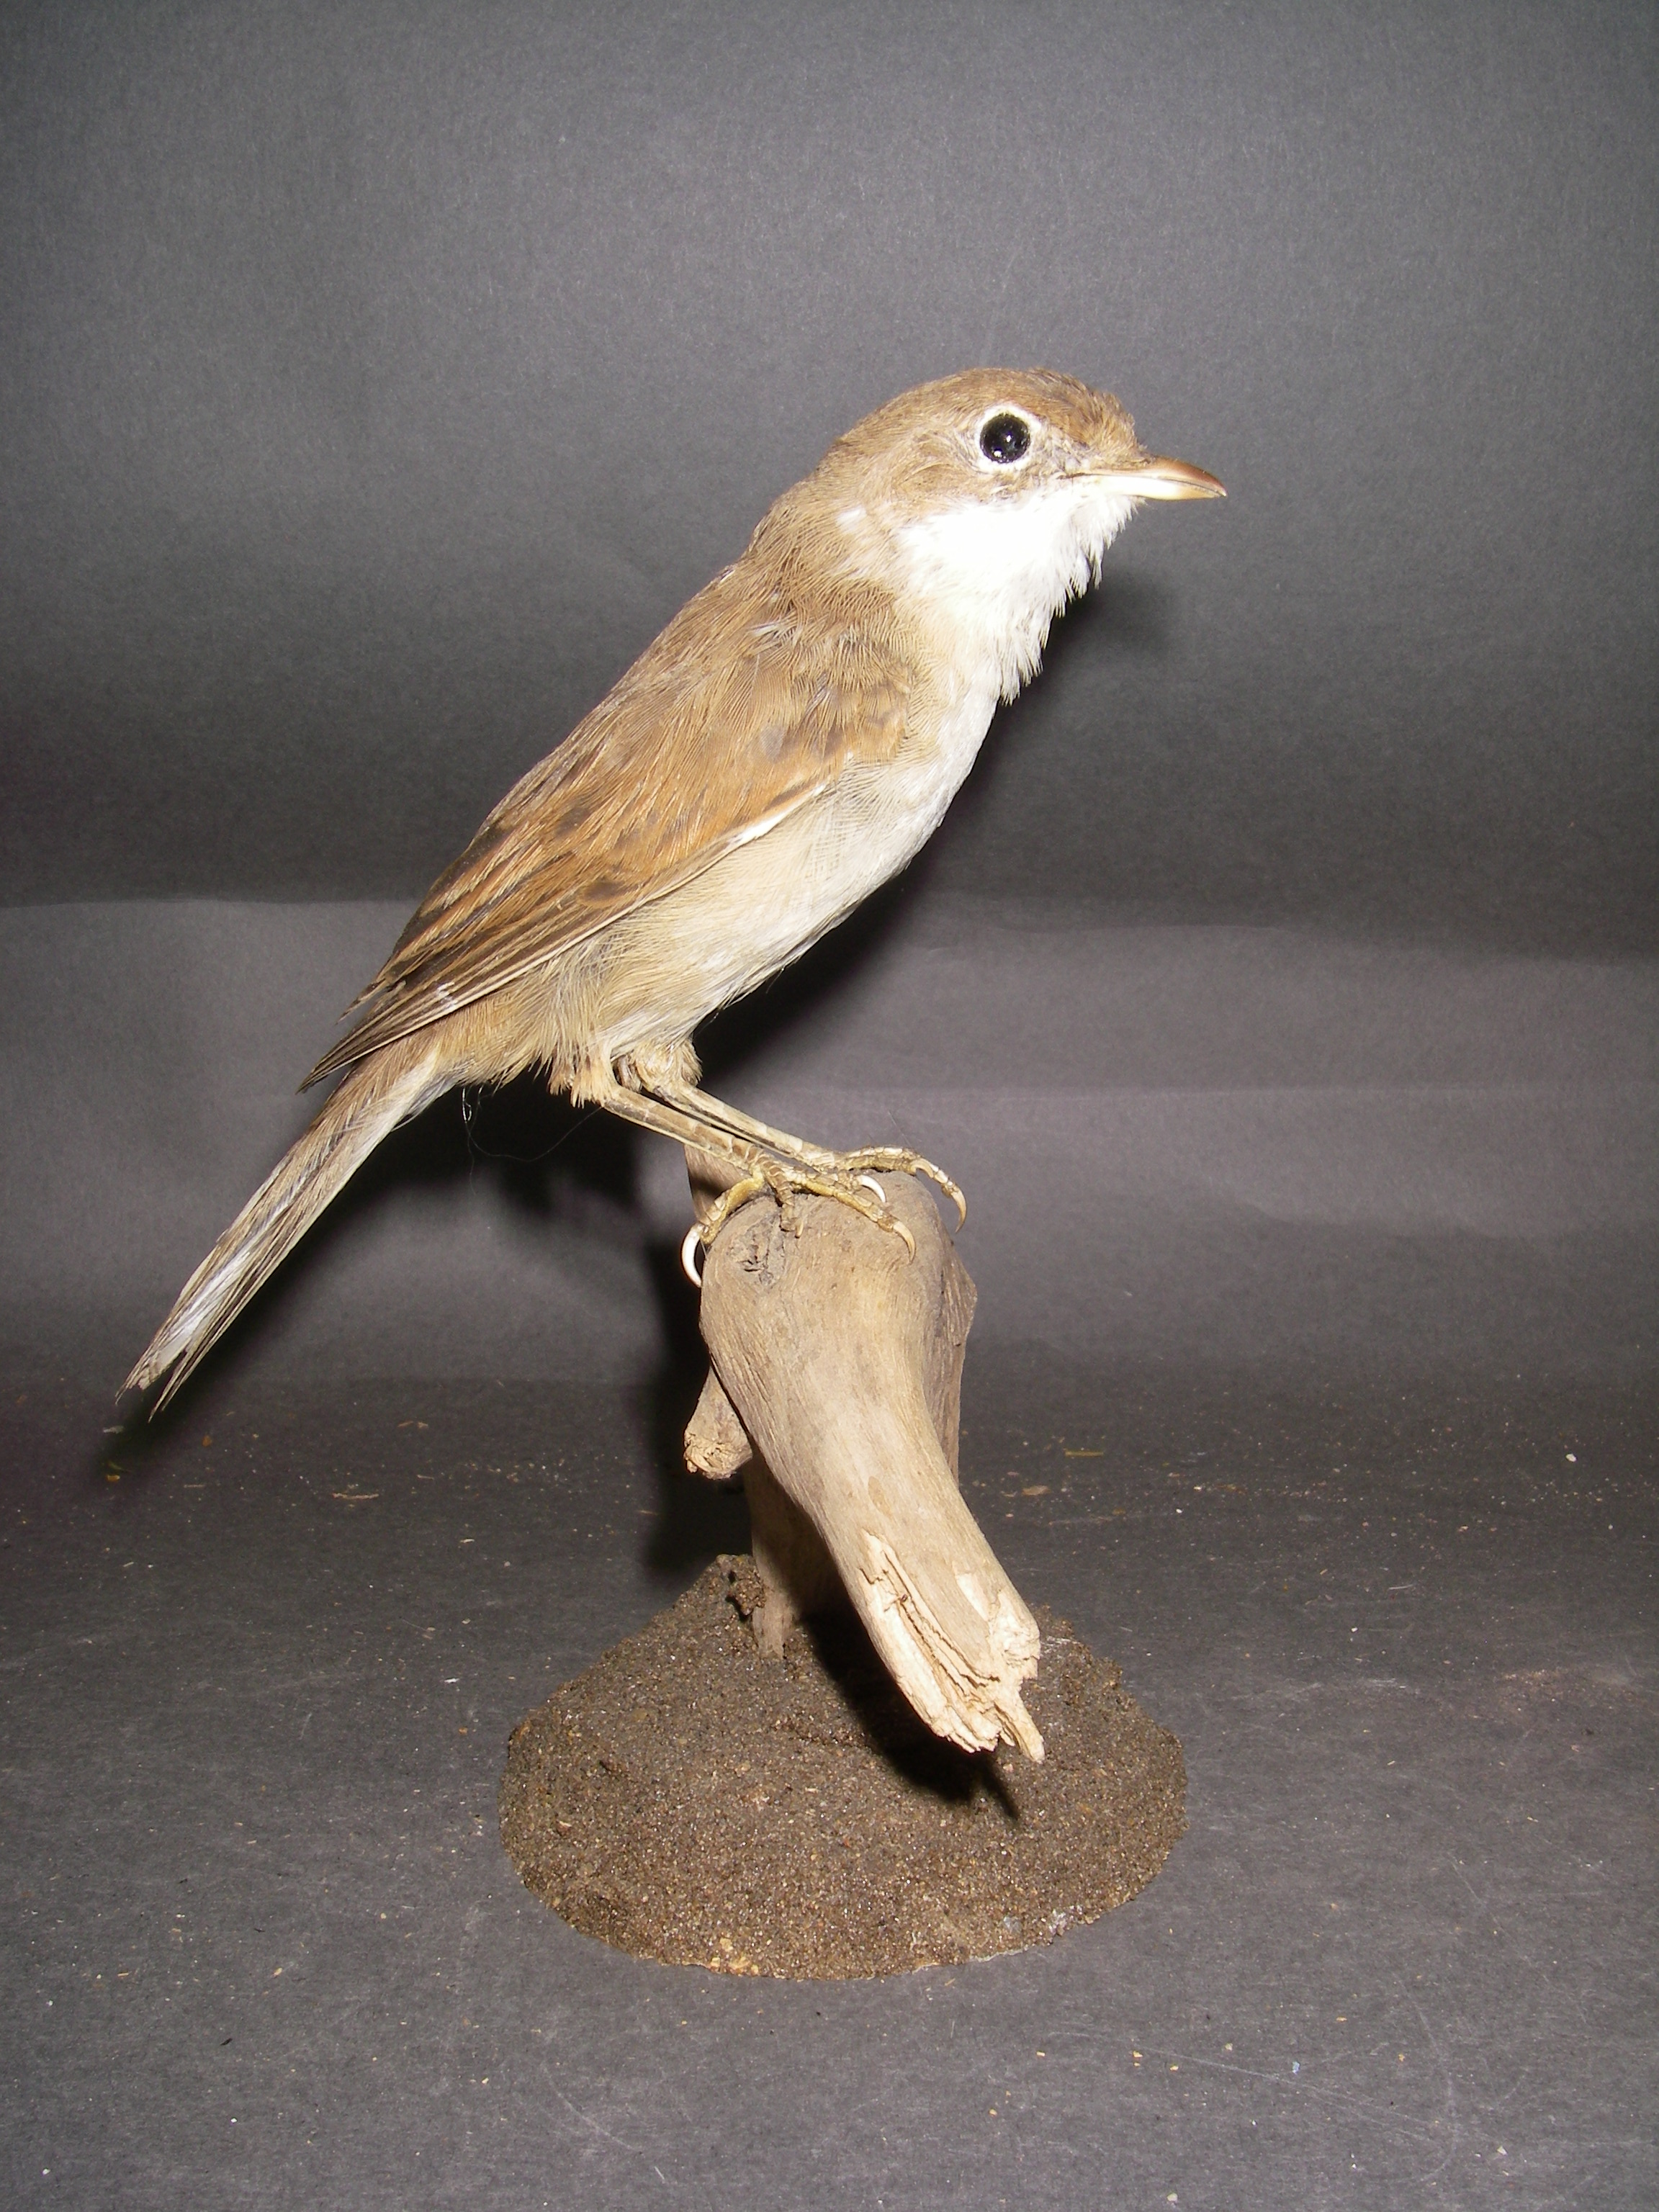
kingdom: Animalia
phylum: Chordata
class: Aves
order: Passeriformes
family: Sylviidae
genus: Sylvia
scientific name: Sylvia communis
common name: Common whitethroat
